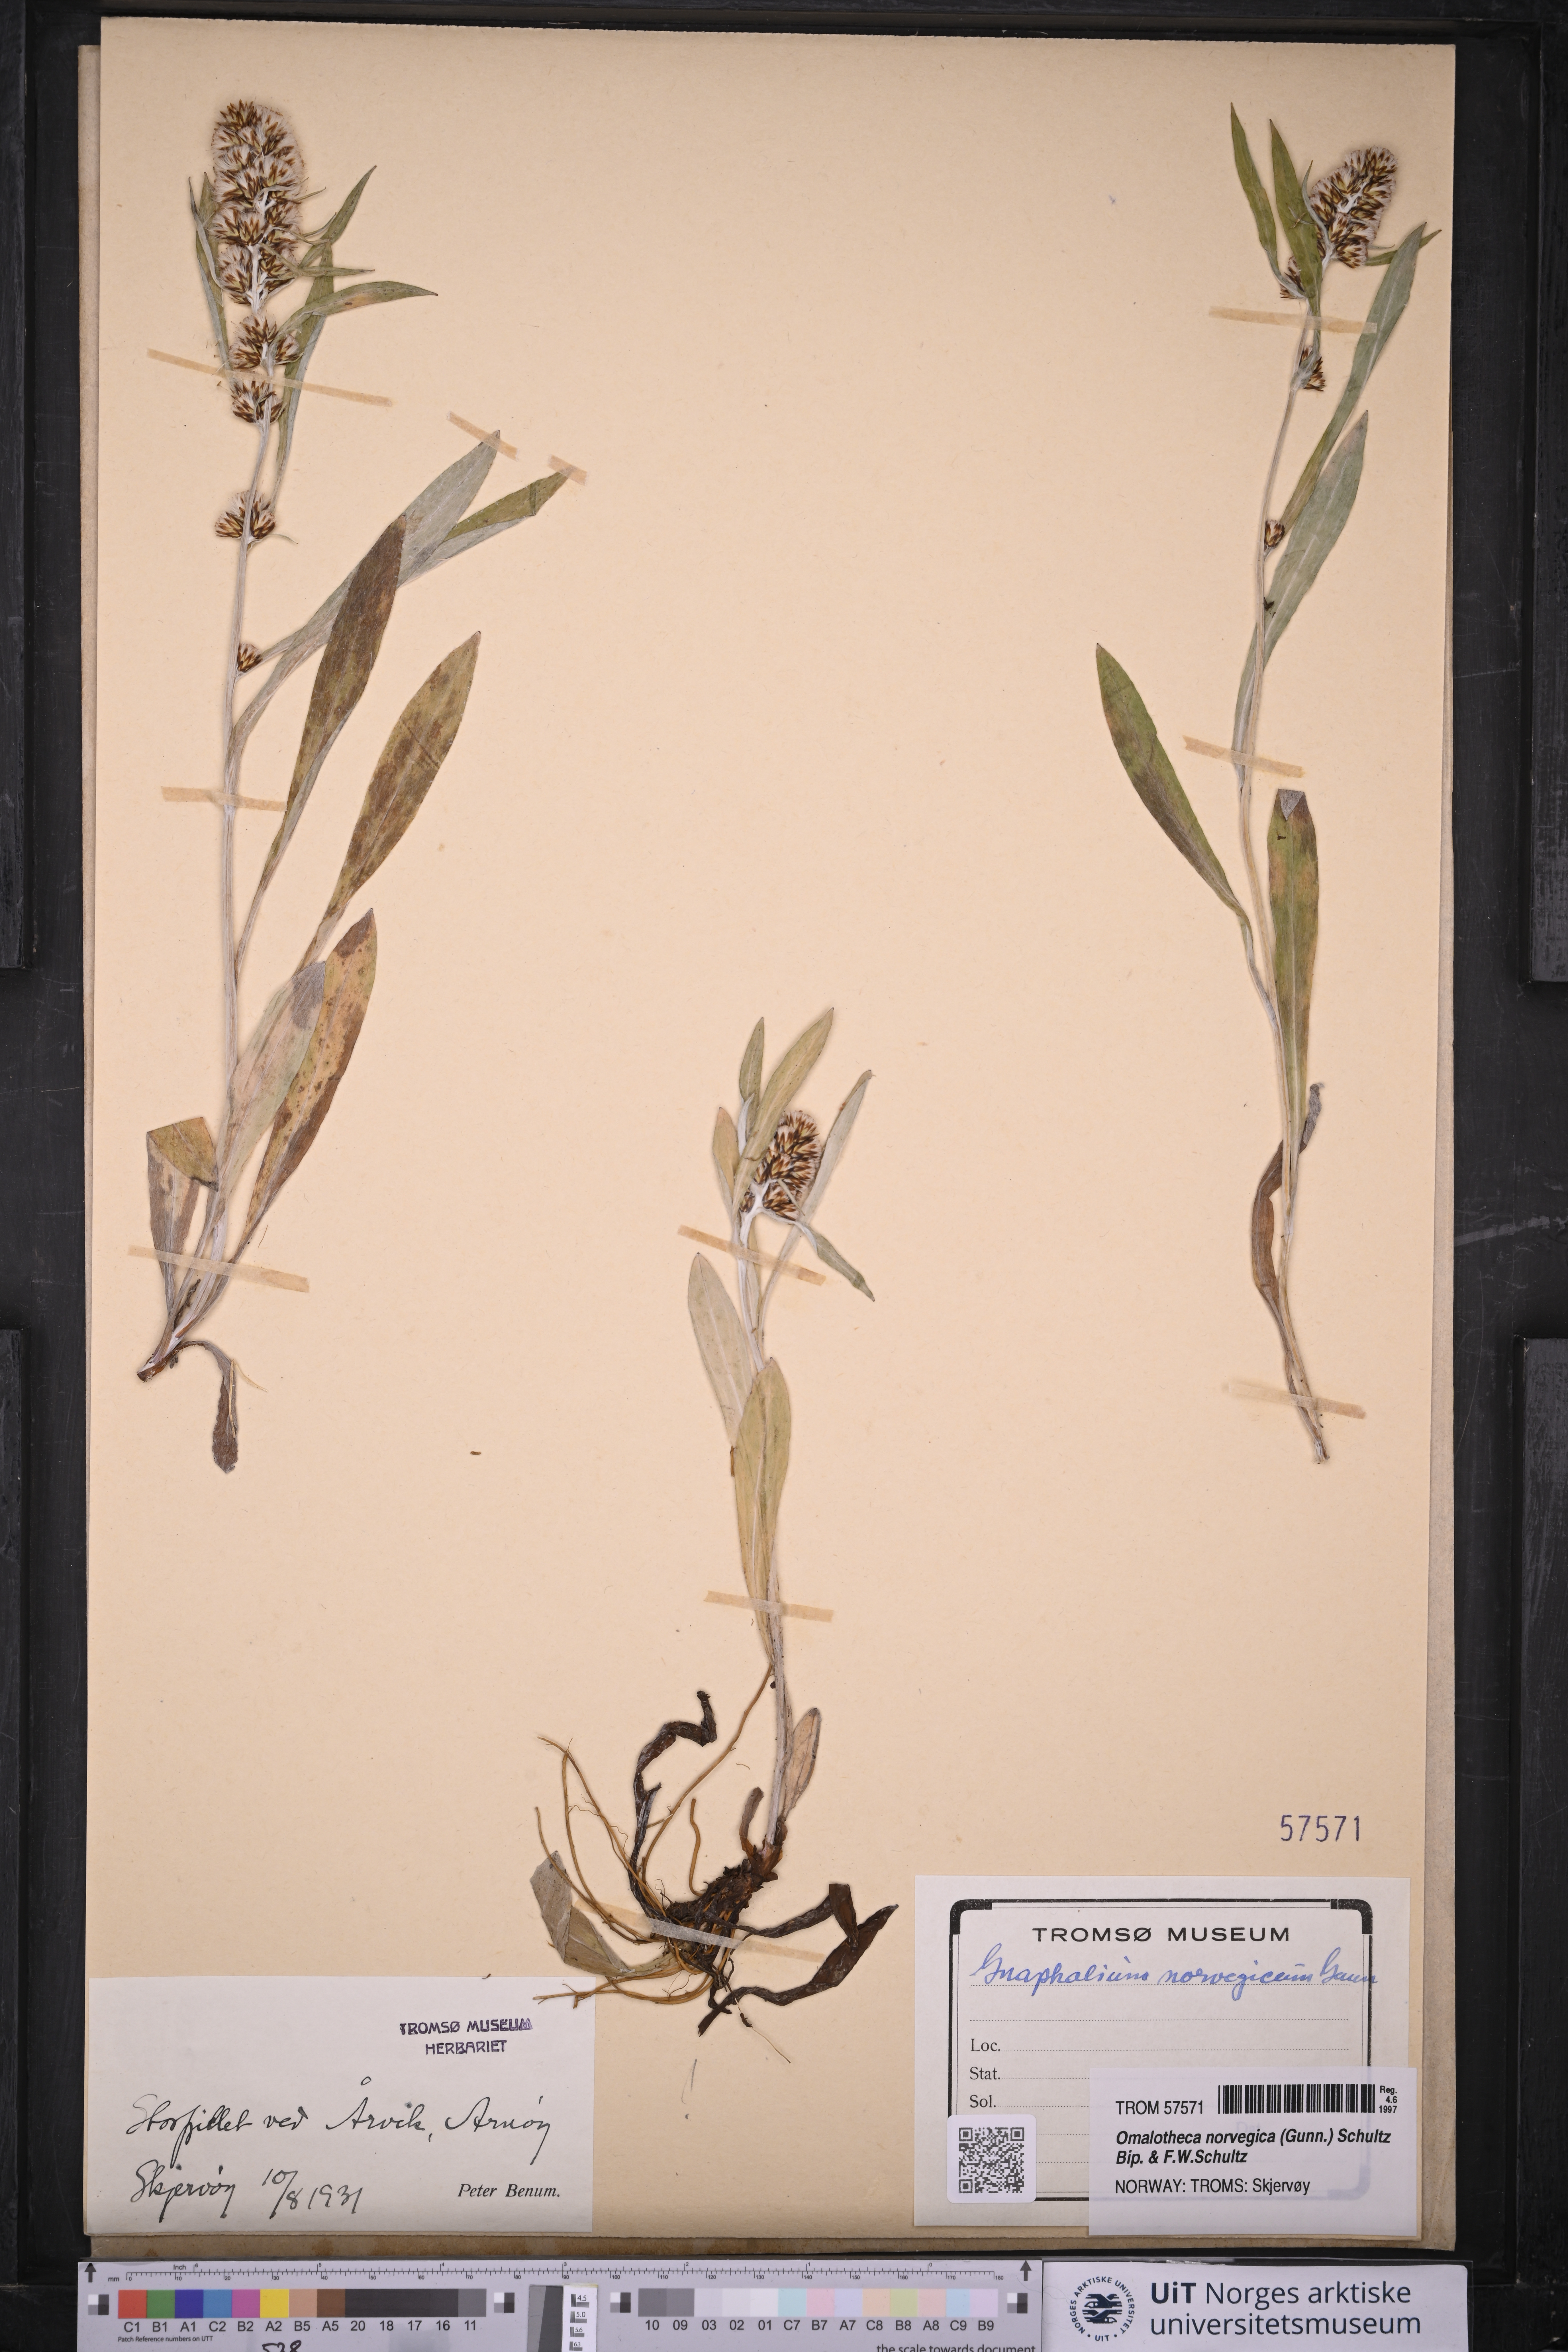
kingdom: Plantae
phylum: Tracheophyta
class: Magnoliopsida
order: Asterales
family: Asteraceae
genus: Omalotheca
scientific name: Omalotheca norvegica
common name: Norwegian arctic-cudweed
